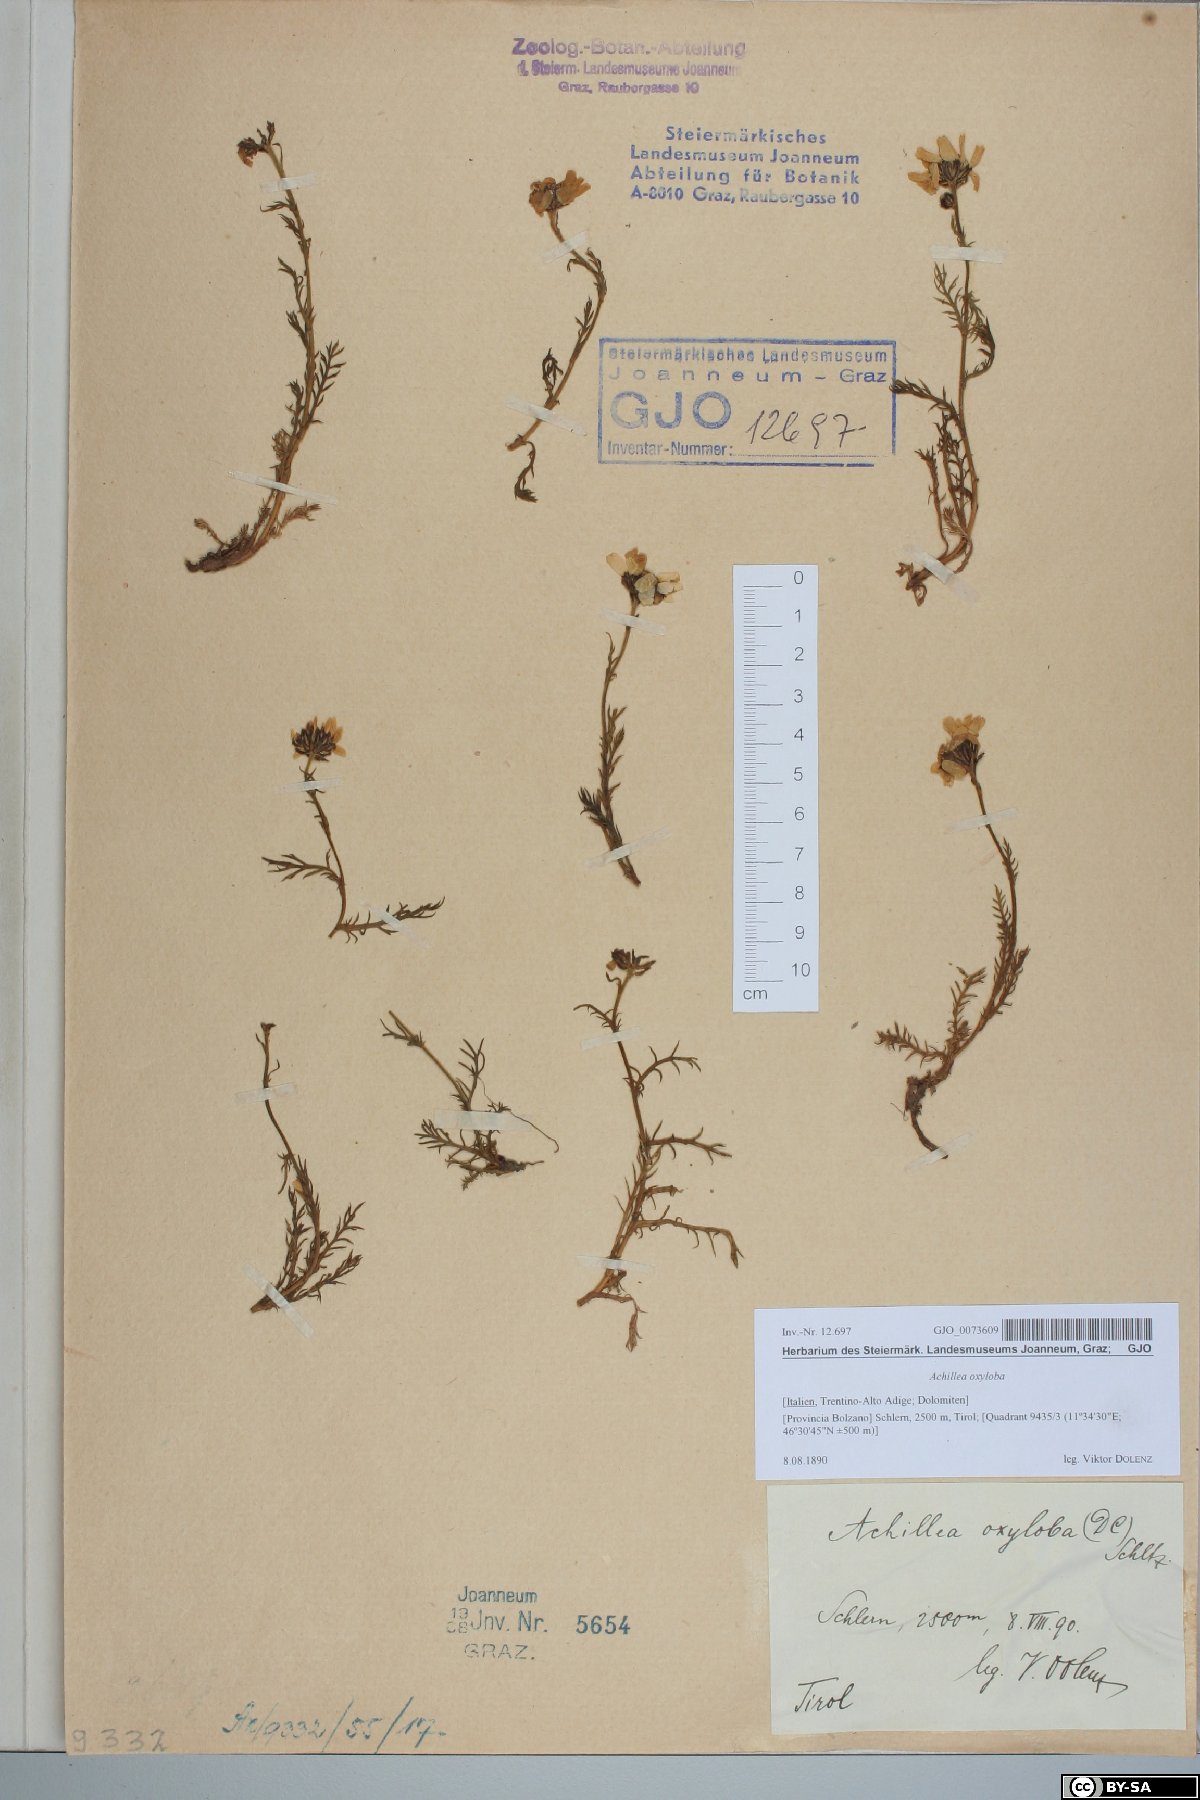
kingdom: Plantae
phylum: Tracheophyta
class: Magnoliopsida
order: Asterales
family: Asteraceae
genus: Achillea
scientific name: Achillea oxyloba
